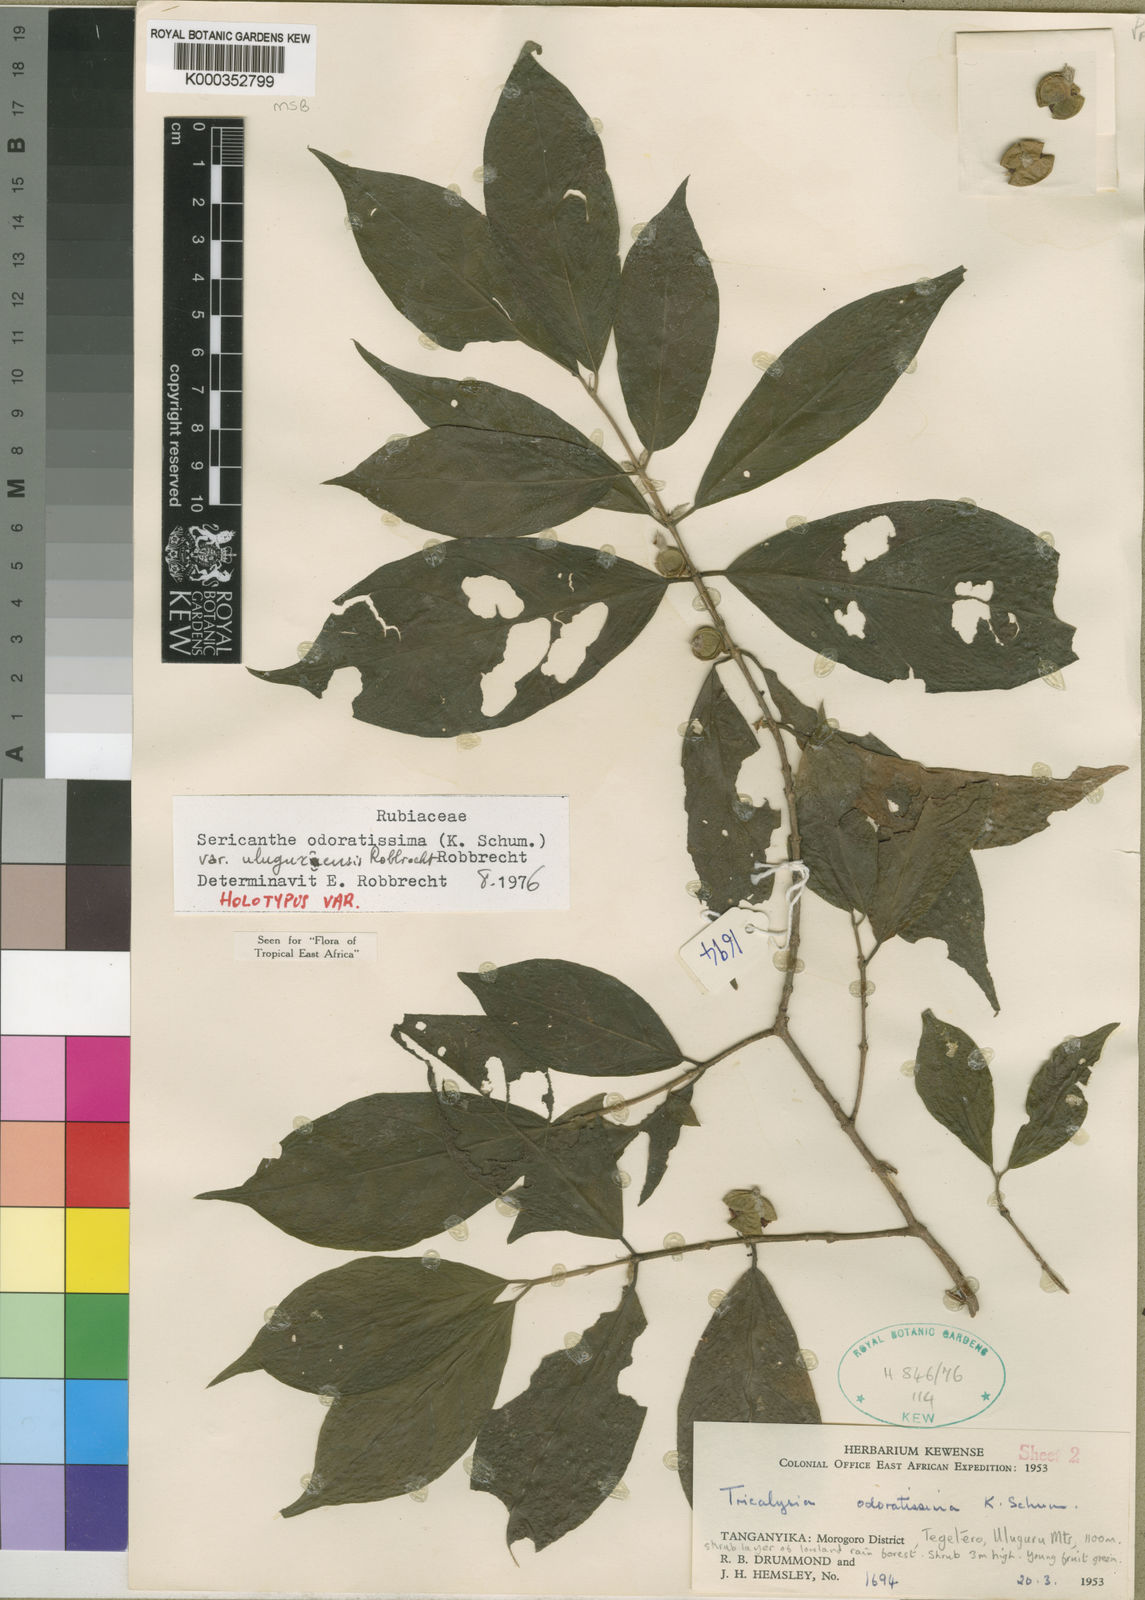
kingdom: Plantae
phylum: Tracheophyta
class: Magnoliopsida
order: Gentianales
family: Rubiaceae
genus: Sericanthe
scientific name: Sericanthe odoratissima
